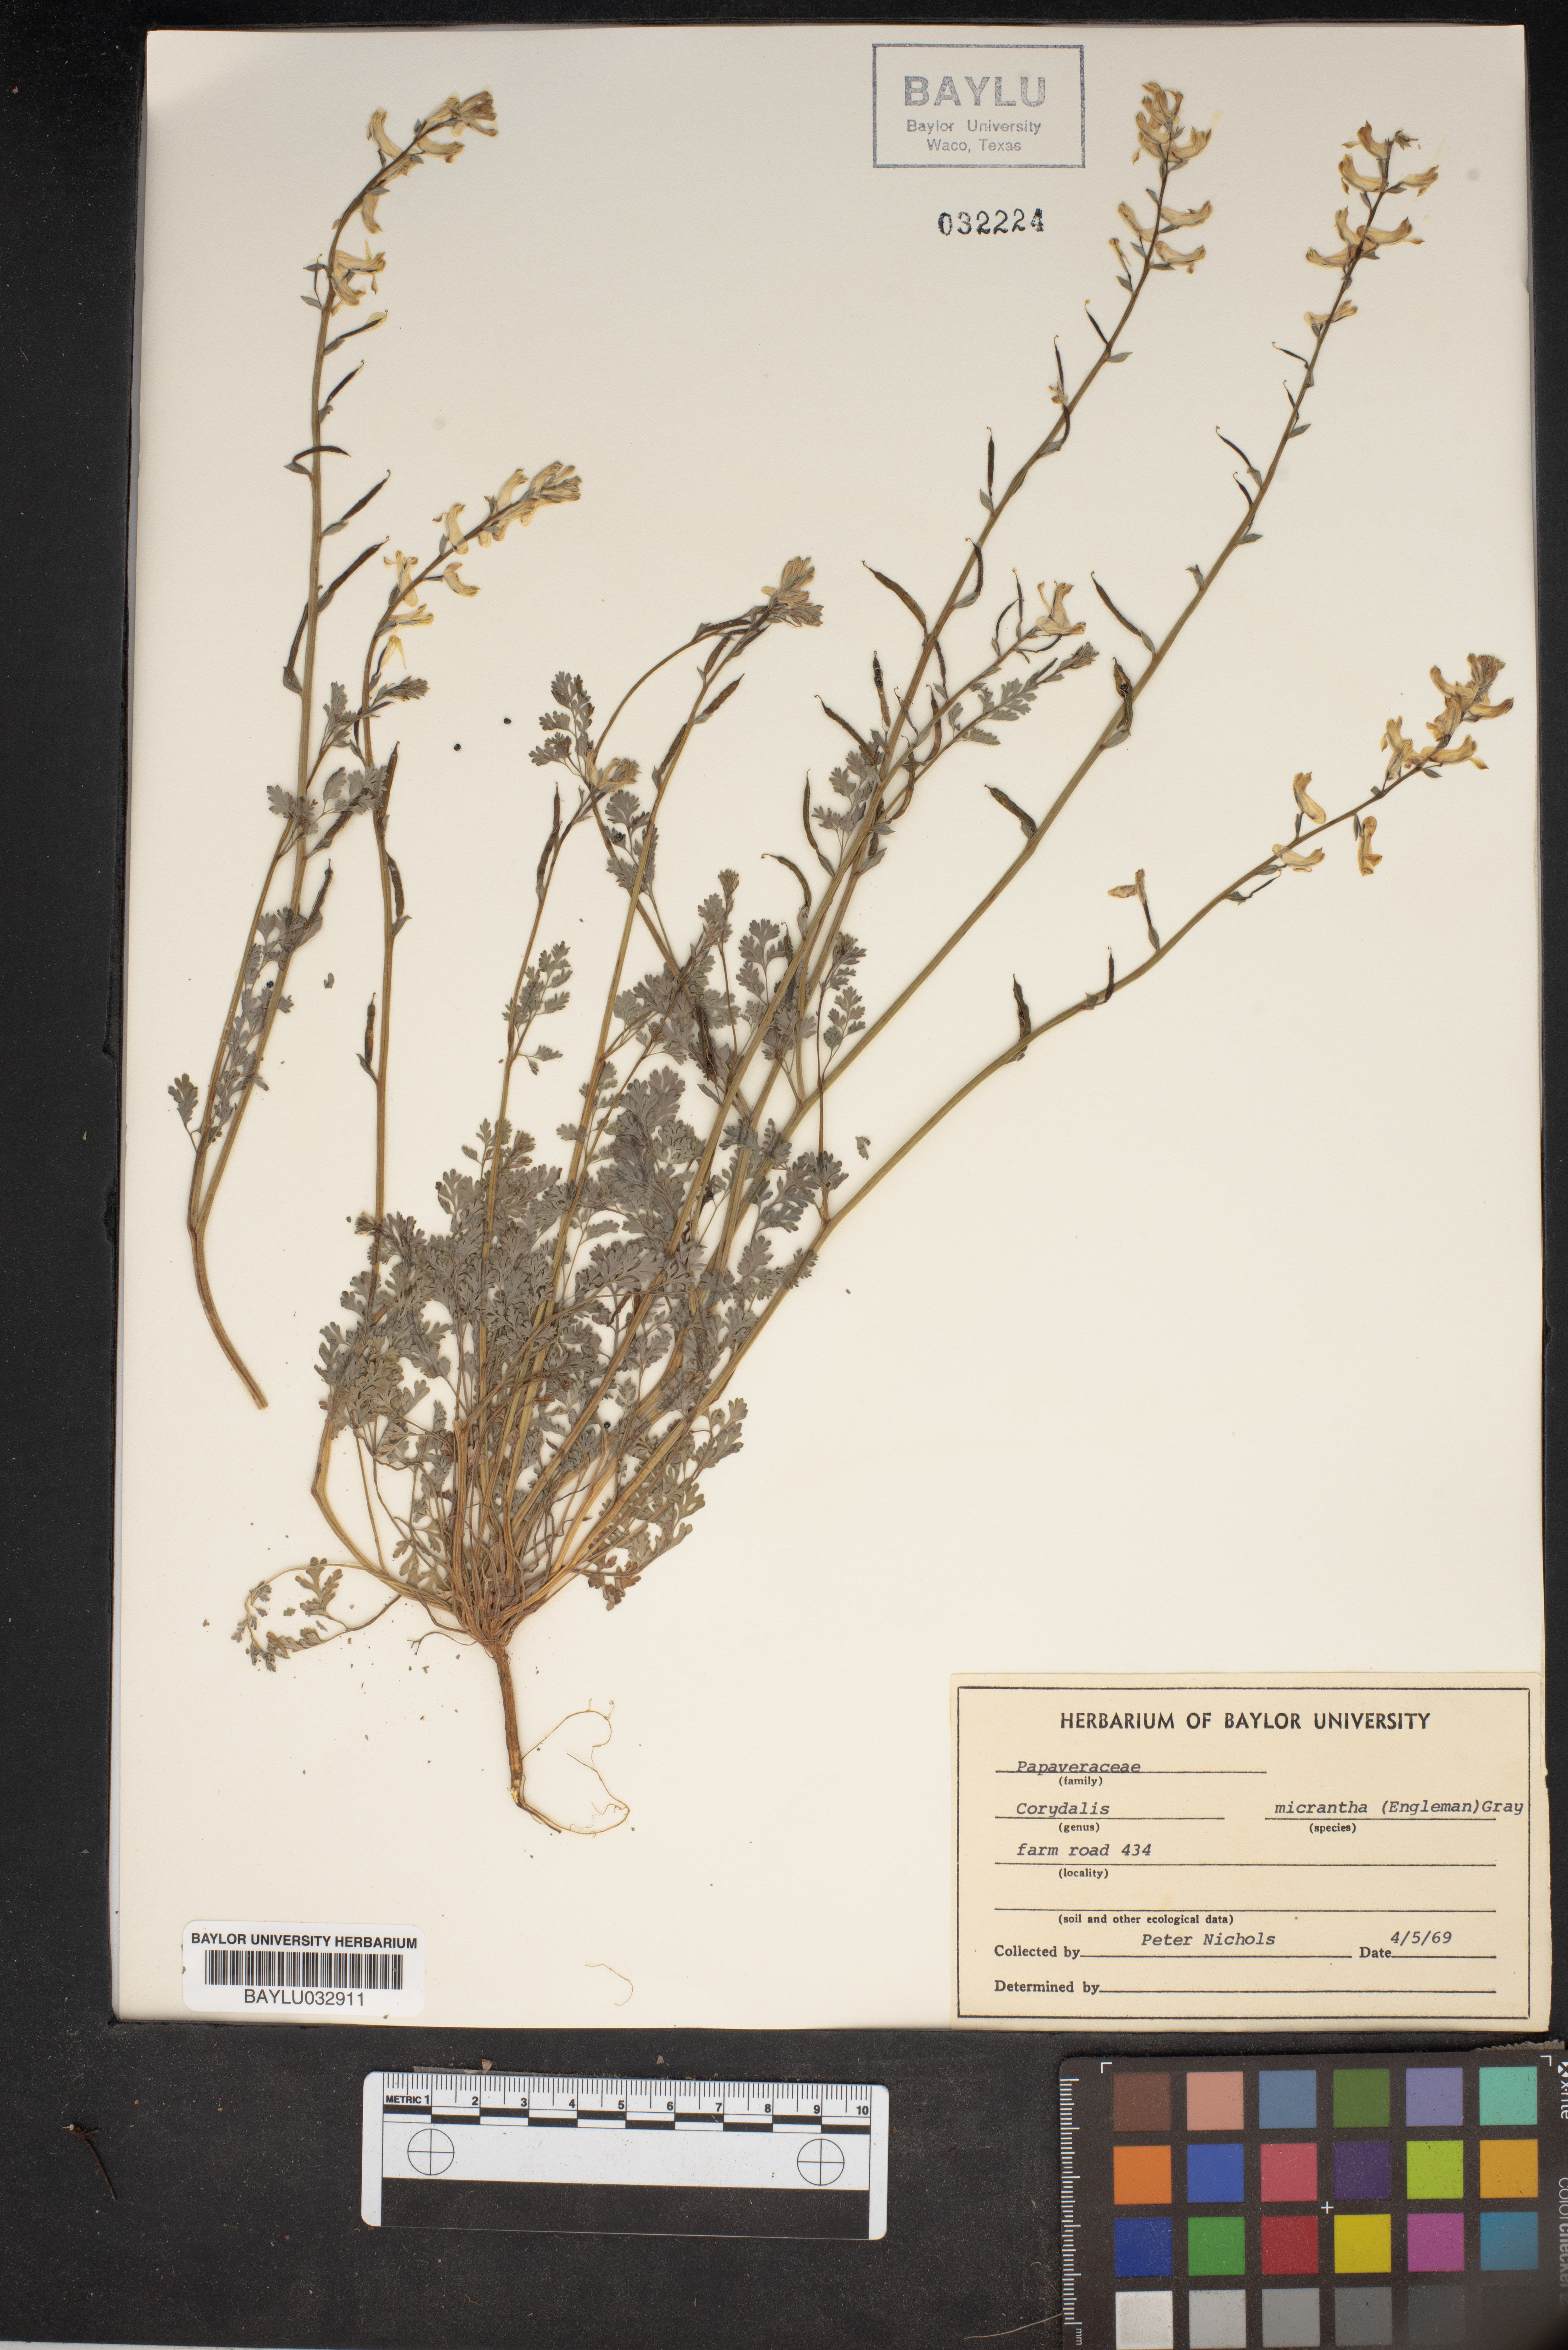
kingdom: Plantae
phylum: Tracheophyta
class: Magnoliopsida
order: Ranunculales
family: Papaveraceae
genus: Corydalis
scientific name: Corydalis micrantha
